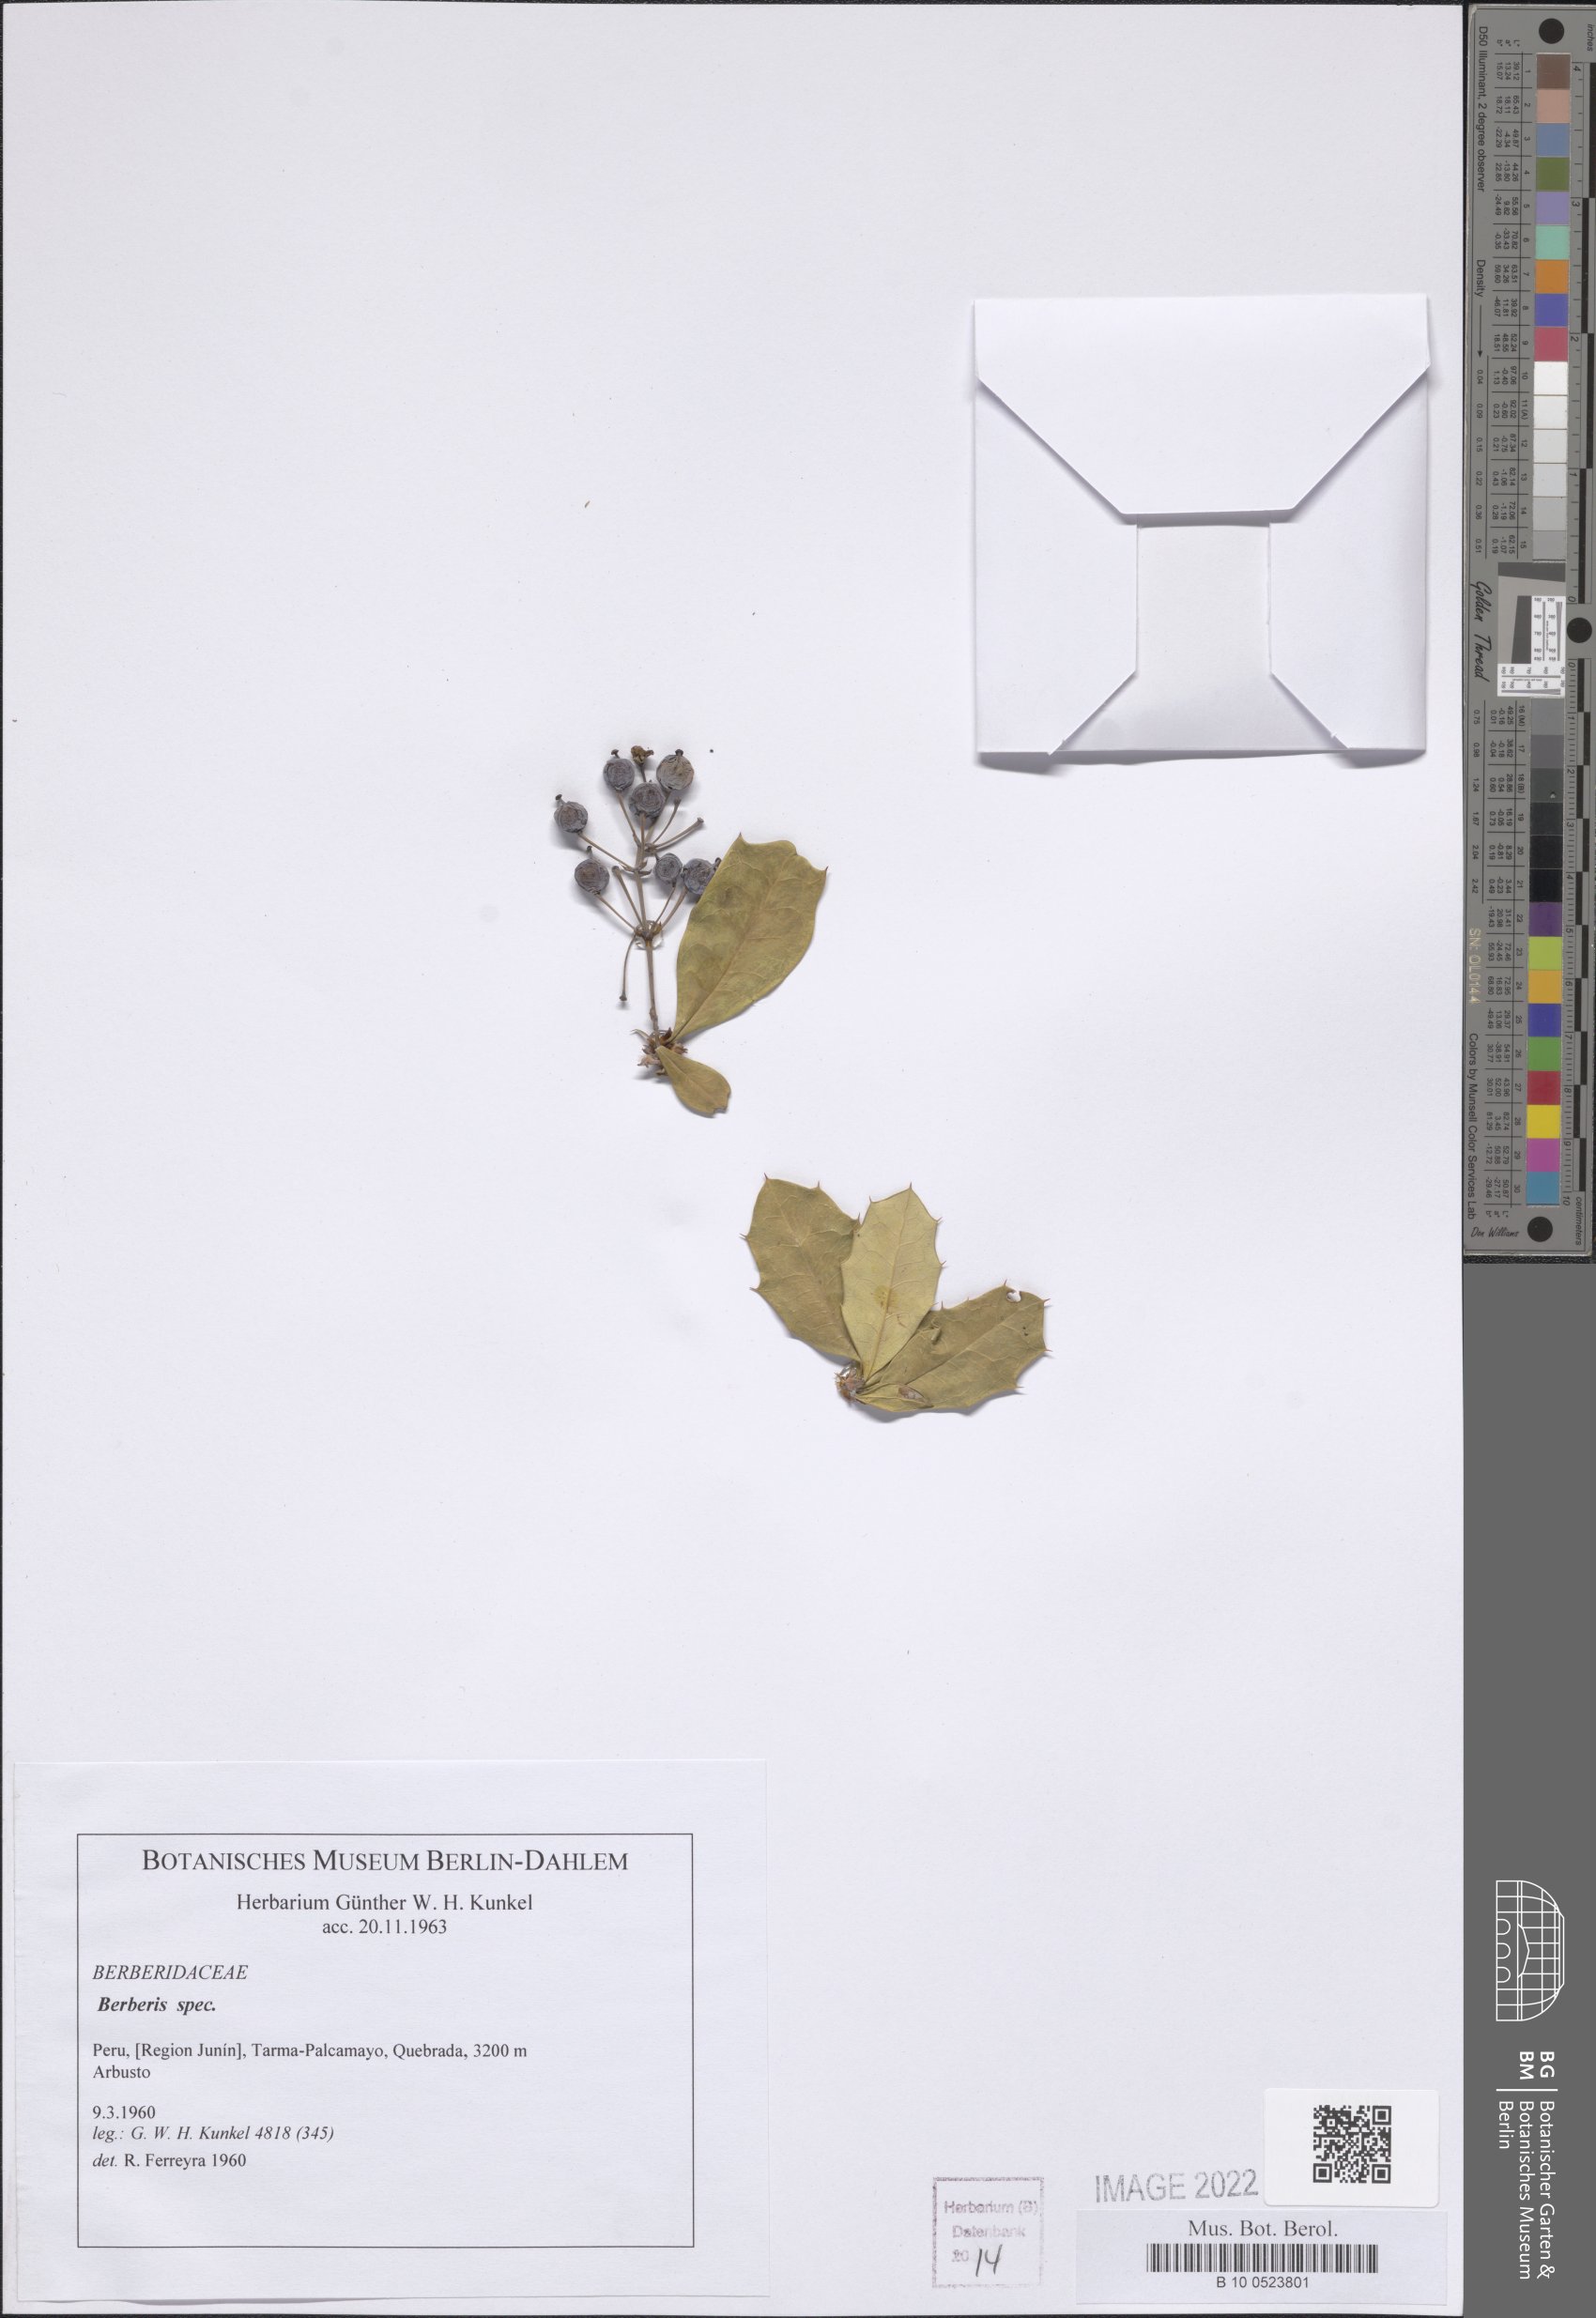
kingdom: Plantae
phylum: Tracheophyta
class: Magnoliopsida
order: Ranunculales
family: Berberidaceae
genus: Berberis
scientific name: Berberis
